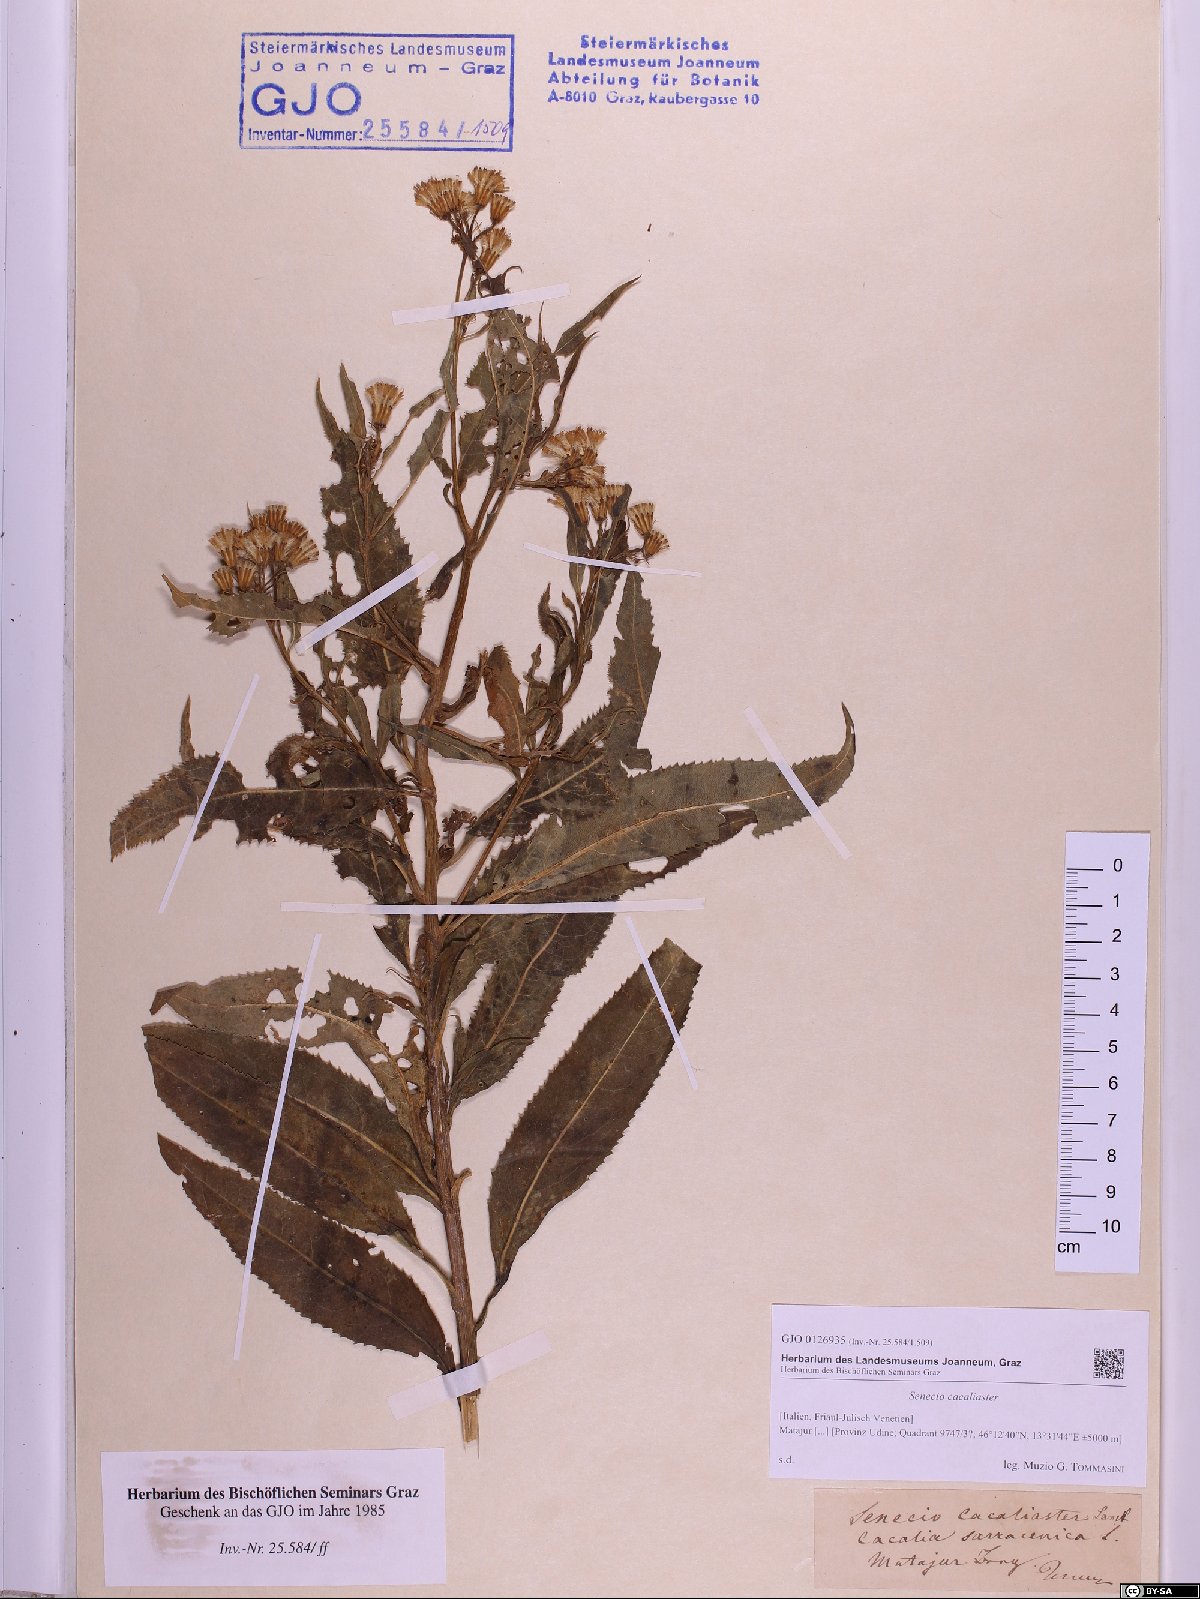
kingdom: Plantae
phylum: Tracheophyta
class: Magnoliopsida
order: Asterales
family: Asteraceae
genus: Senecio
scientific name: Senecio cacaliaster
